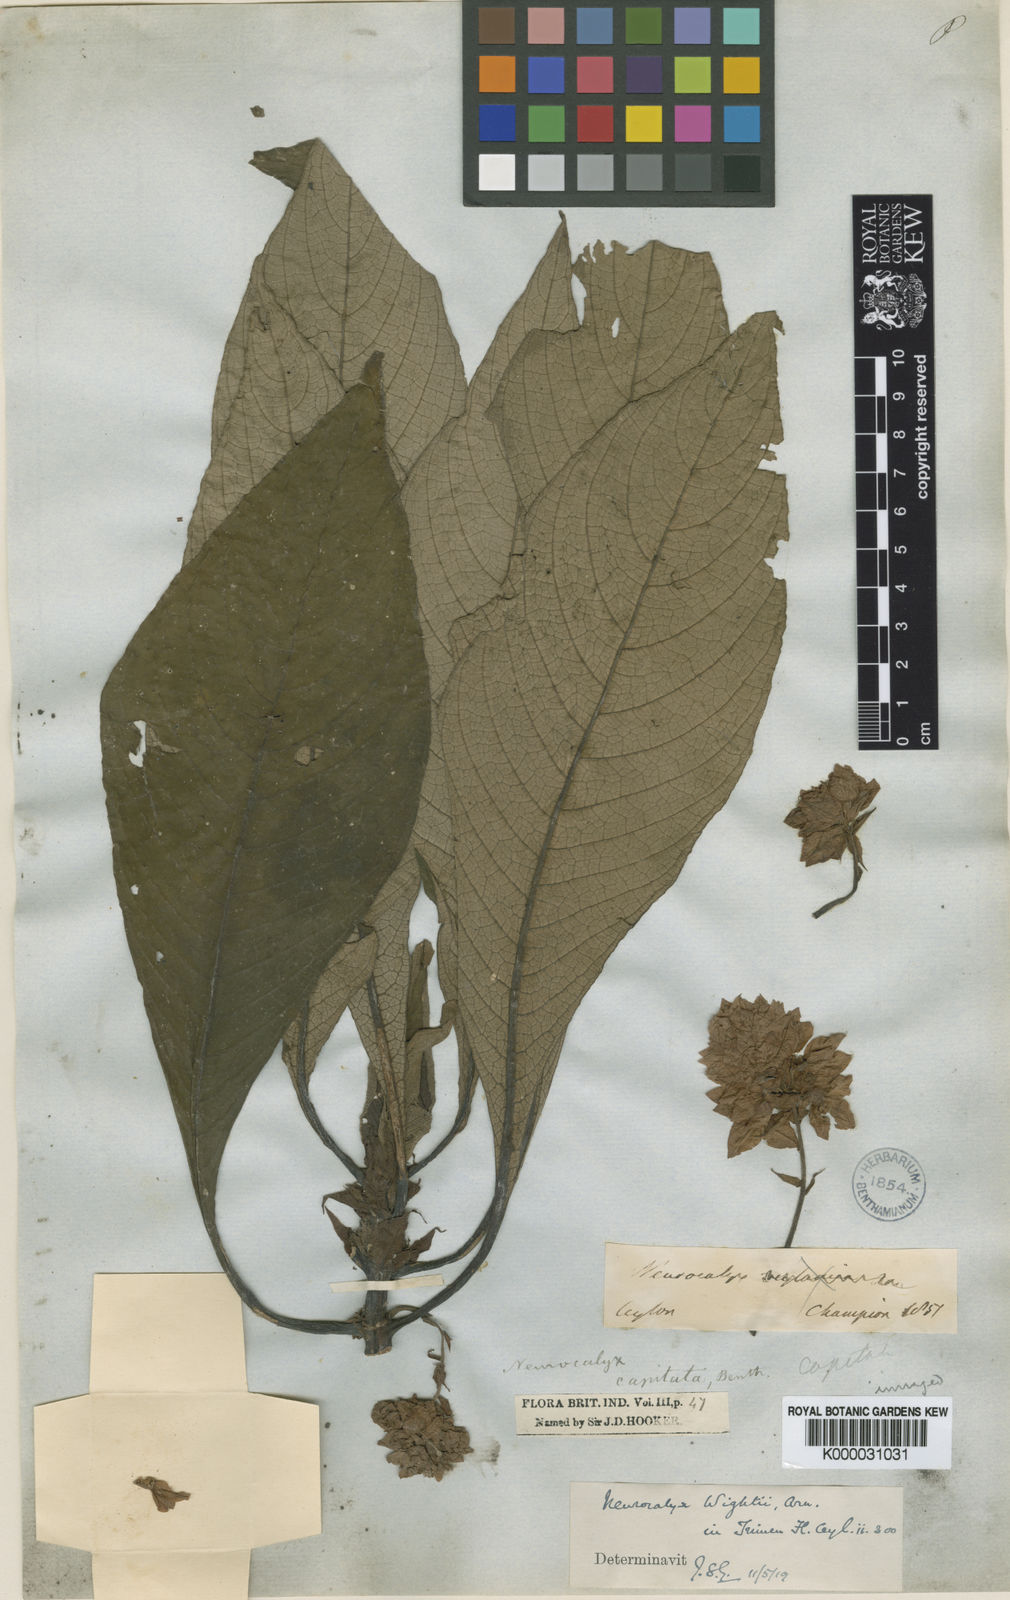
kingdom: Plantae
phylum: Tracheophyta
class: Magnoliopsida
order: Gentianales
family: Rubiaceae
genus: Neurocalyx
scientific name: Neurocalyx calycinus
